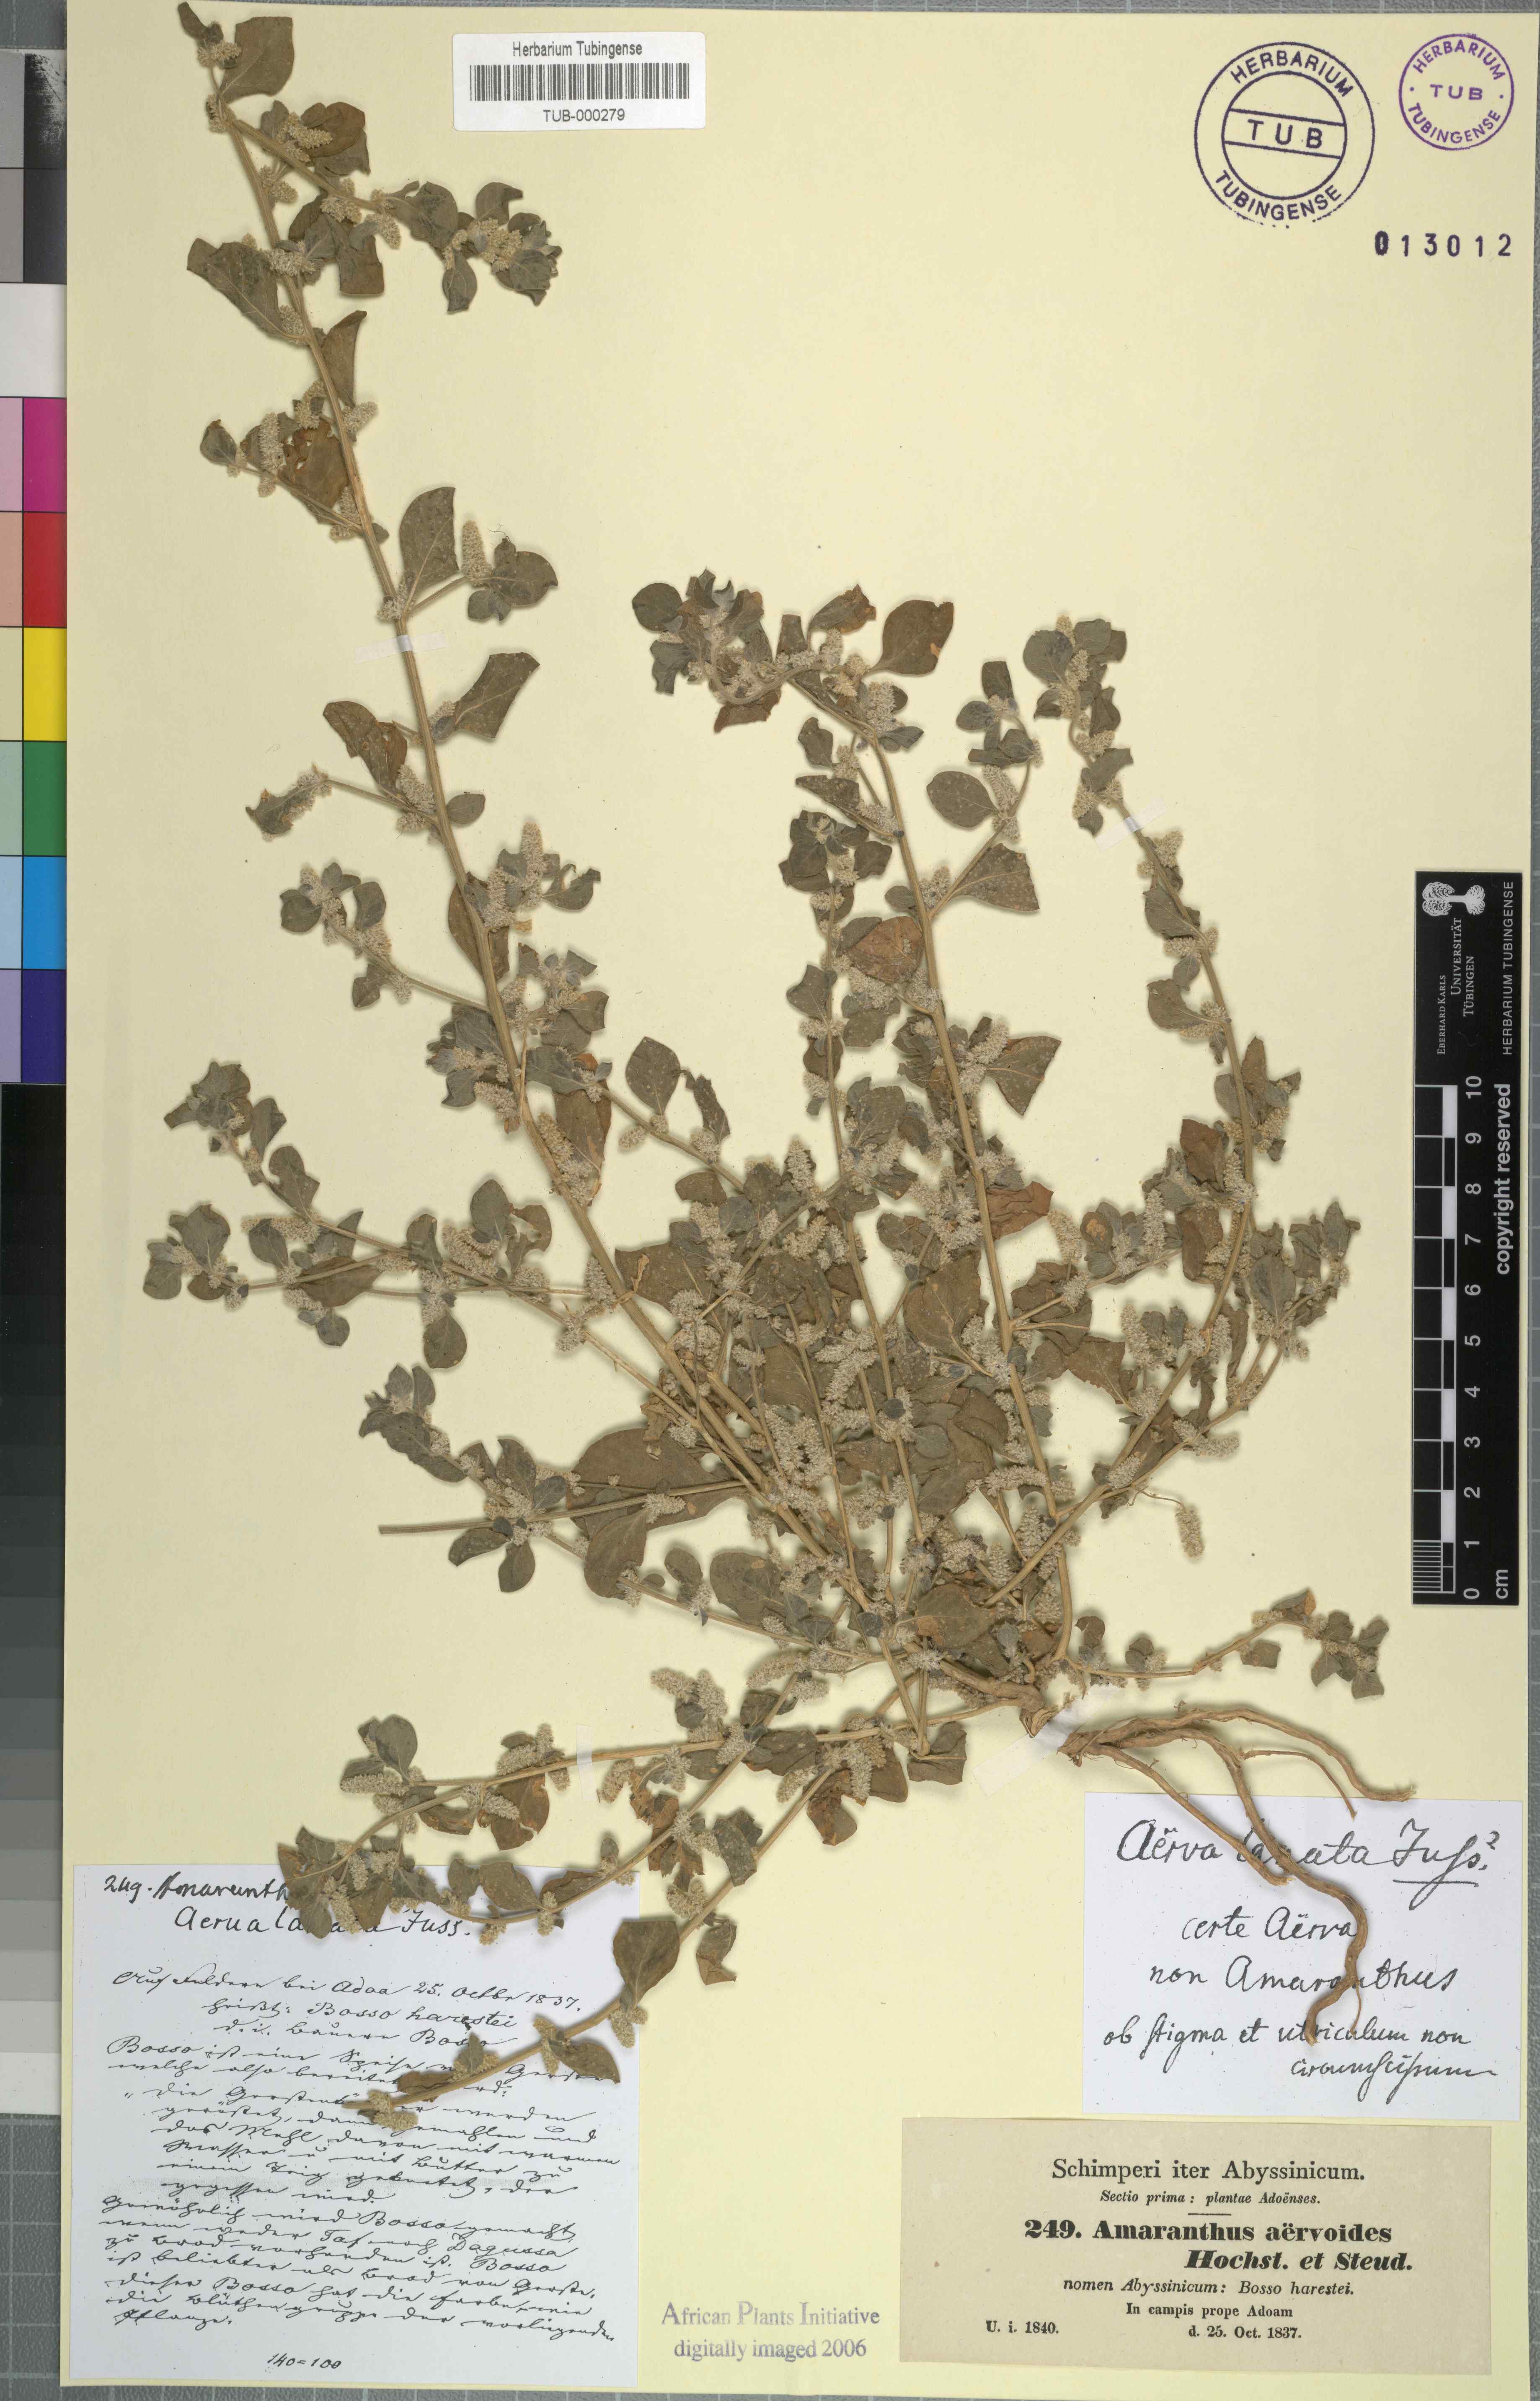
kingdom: Plantae
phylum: Tracheophyta
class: Magnoliopsida
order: Caryophyllales
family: Amaranthaceae
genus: Ouret
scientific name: Ouret lanata
